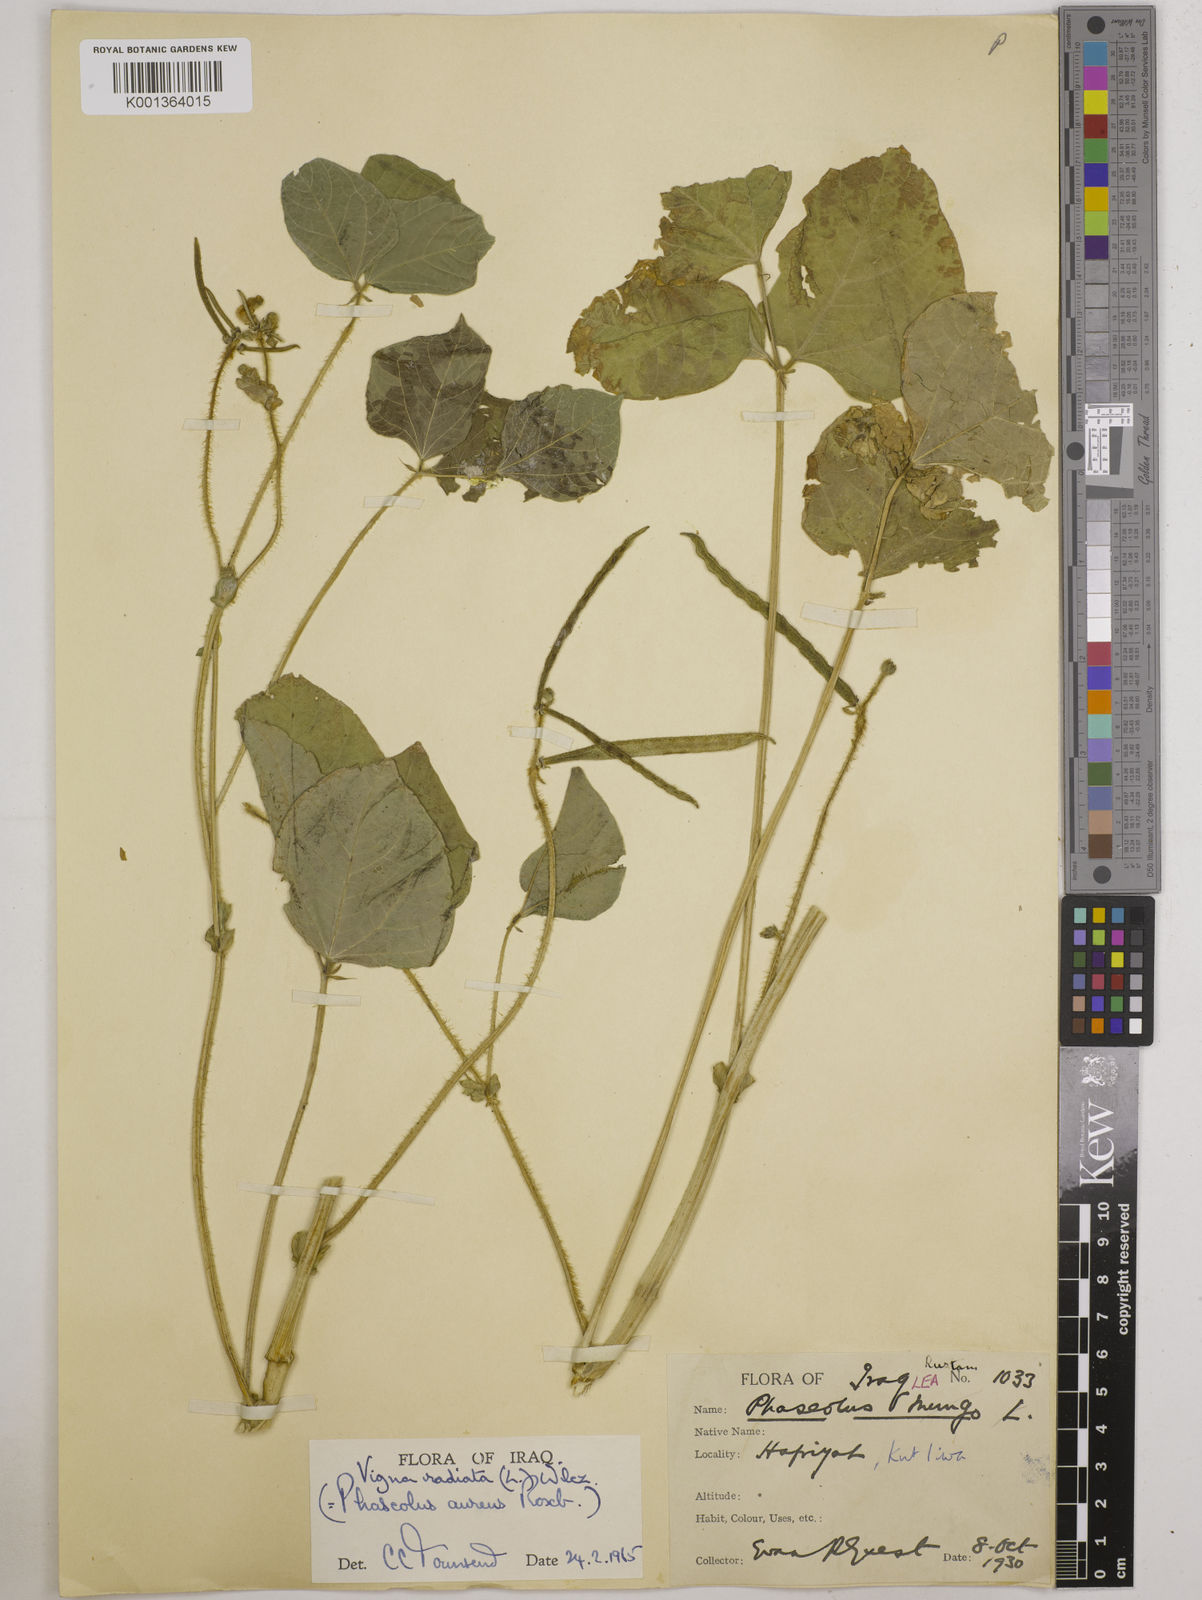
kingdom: Plantae
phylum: Tracheophyta
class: Magnoliopsida
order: Fabales
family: Fabaceae
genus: Vigna
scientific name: Vigna radiata
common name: Mung-bean
